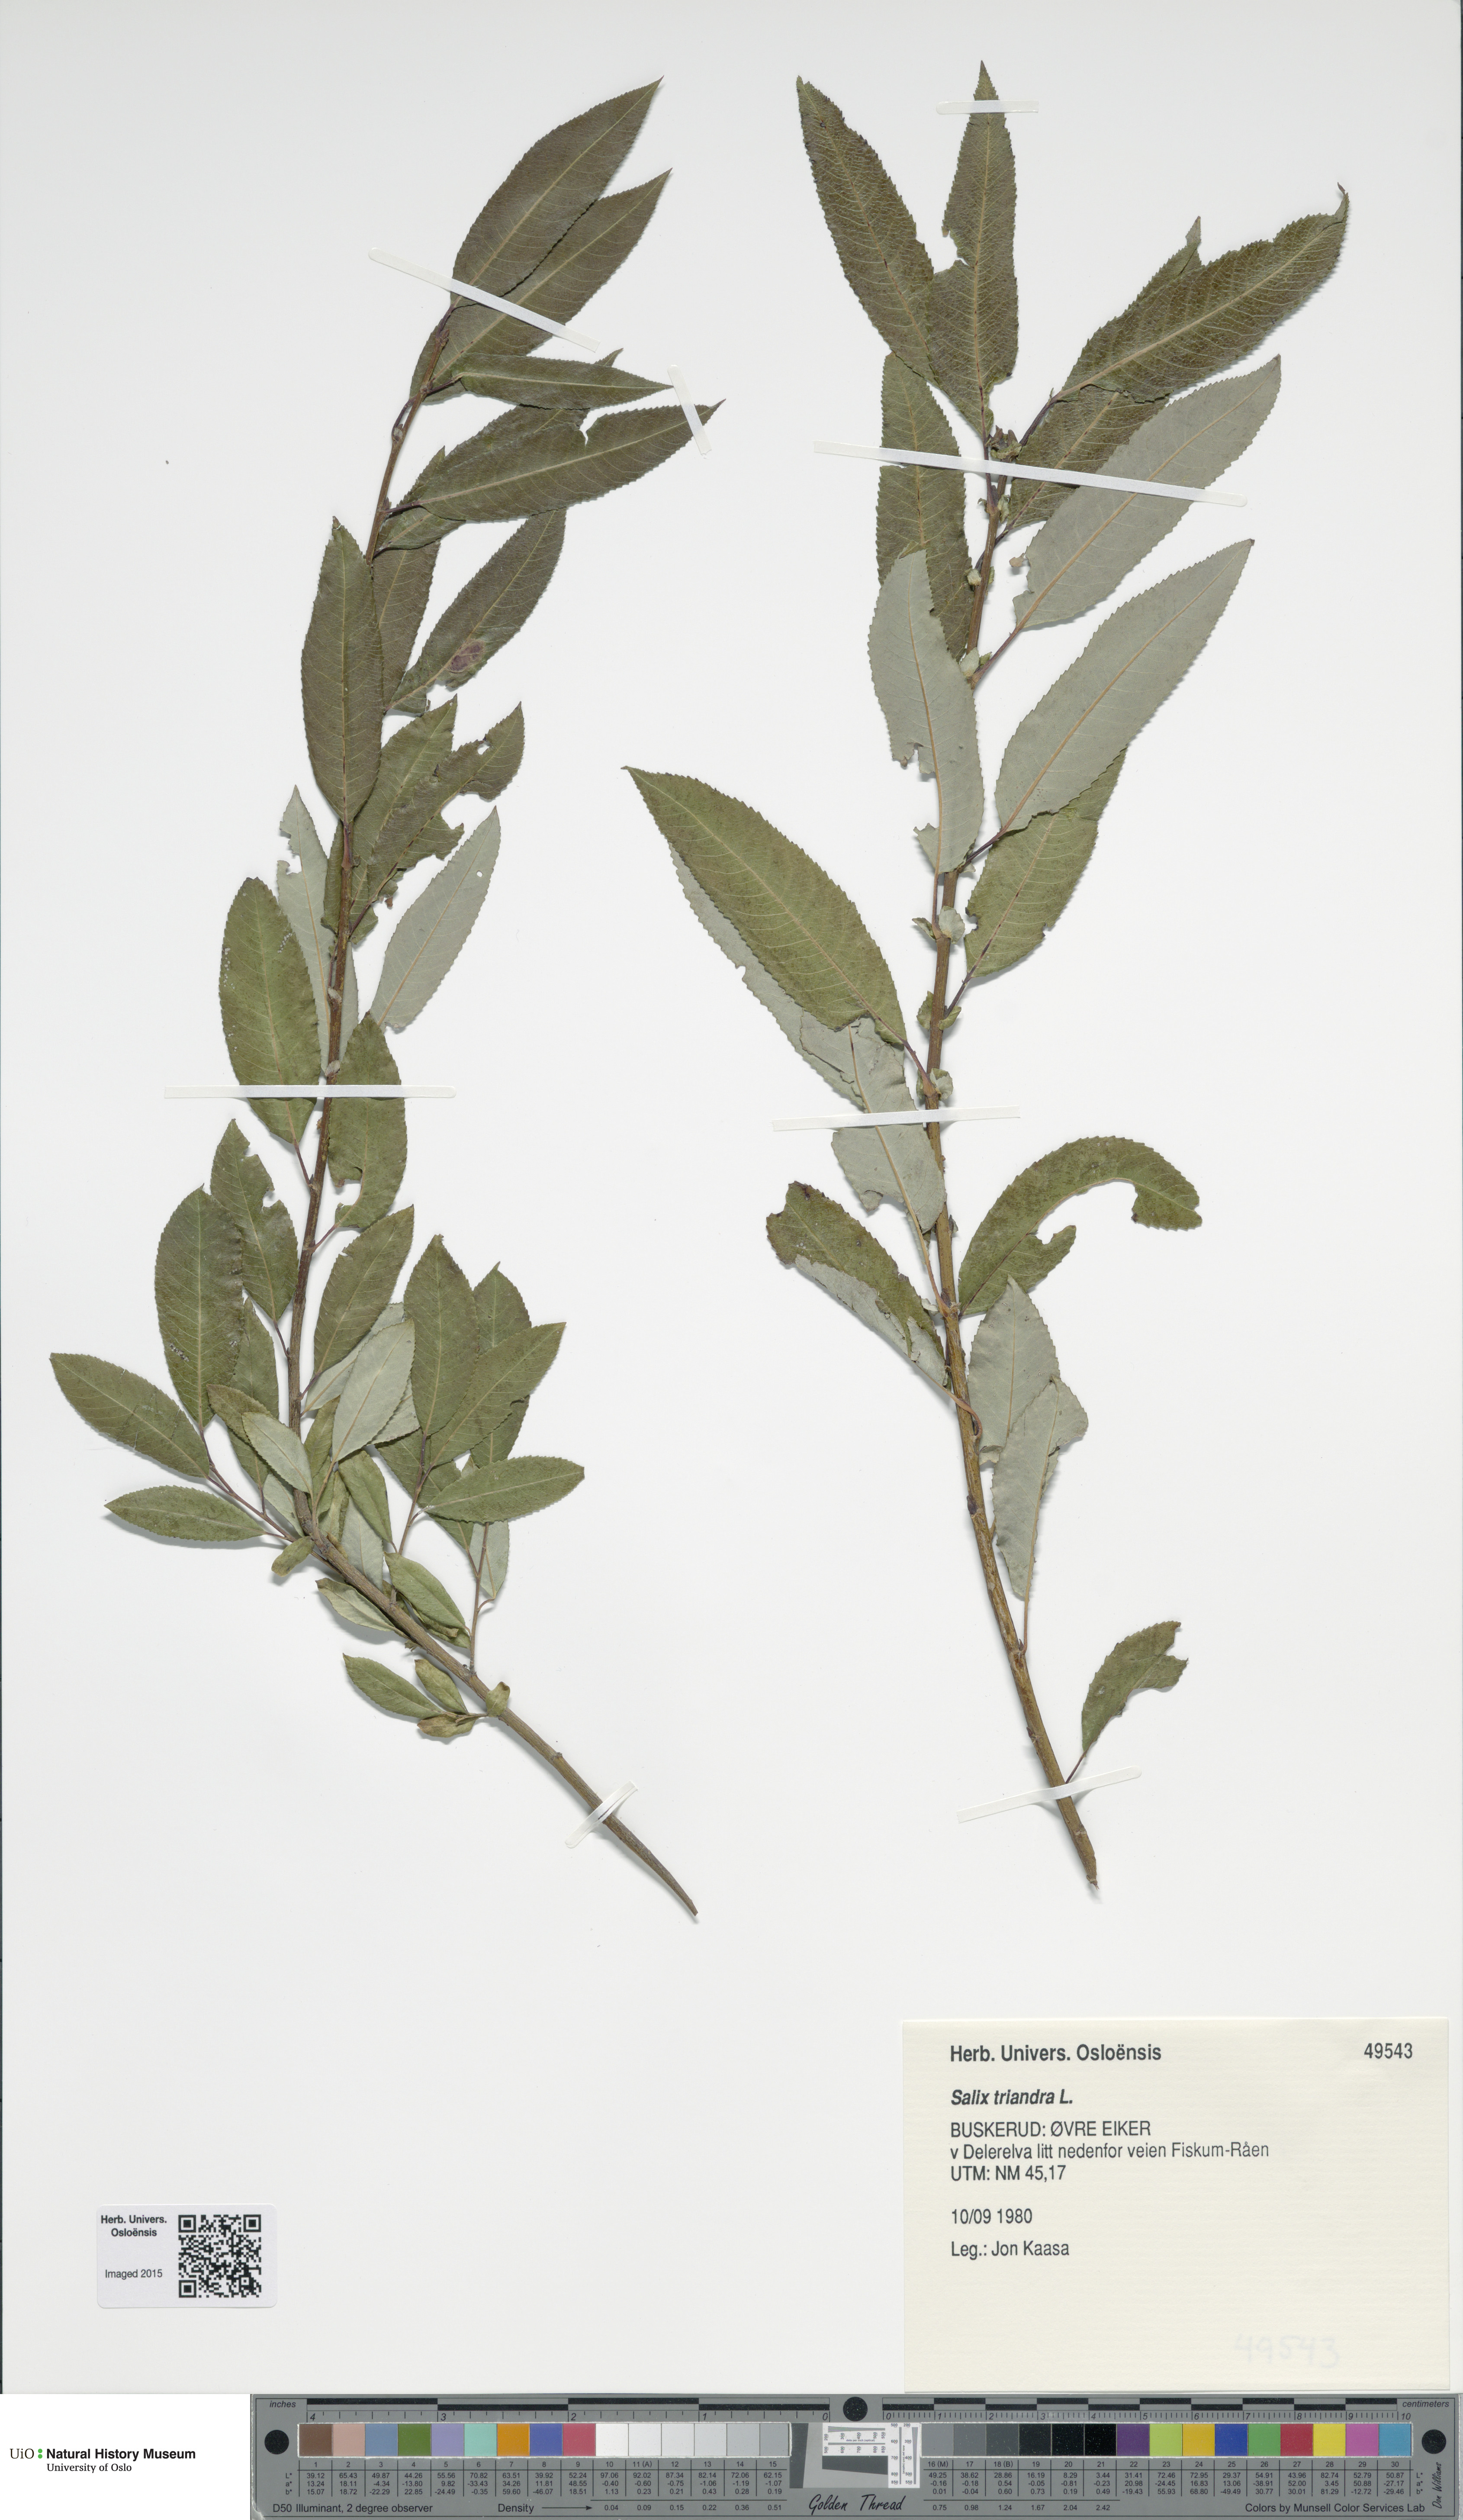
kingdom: Plantae
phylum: Tracheophyta
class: Magnoliopsida
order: Malpighiales
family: Salicaceae
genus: Salix
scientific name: Salix triandra
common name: Almond willow
